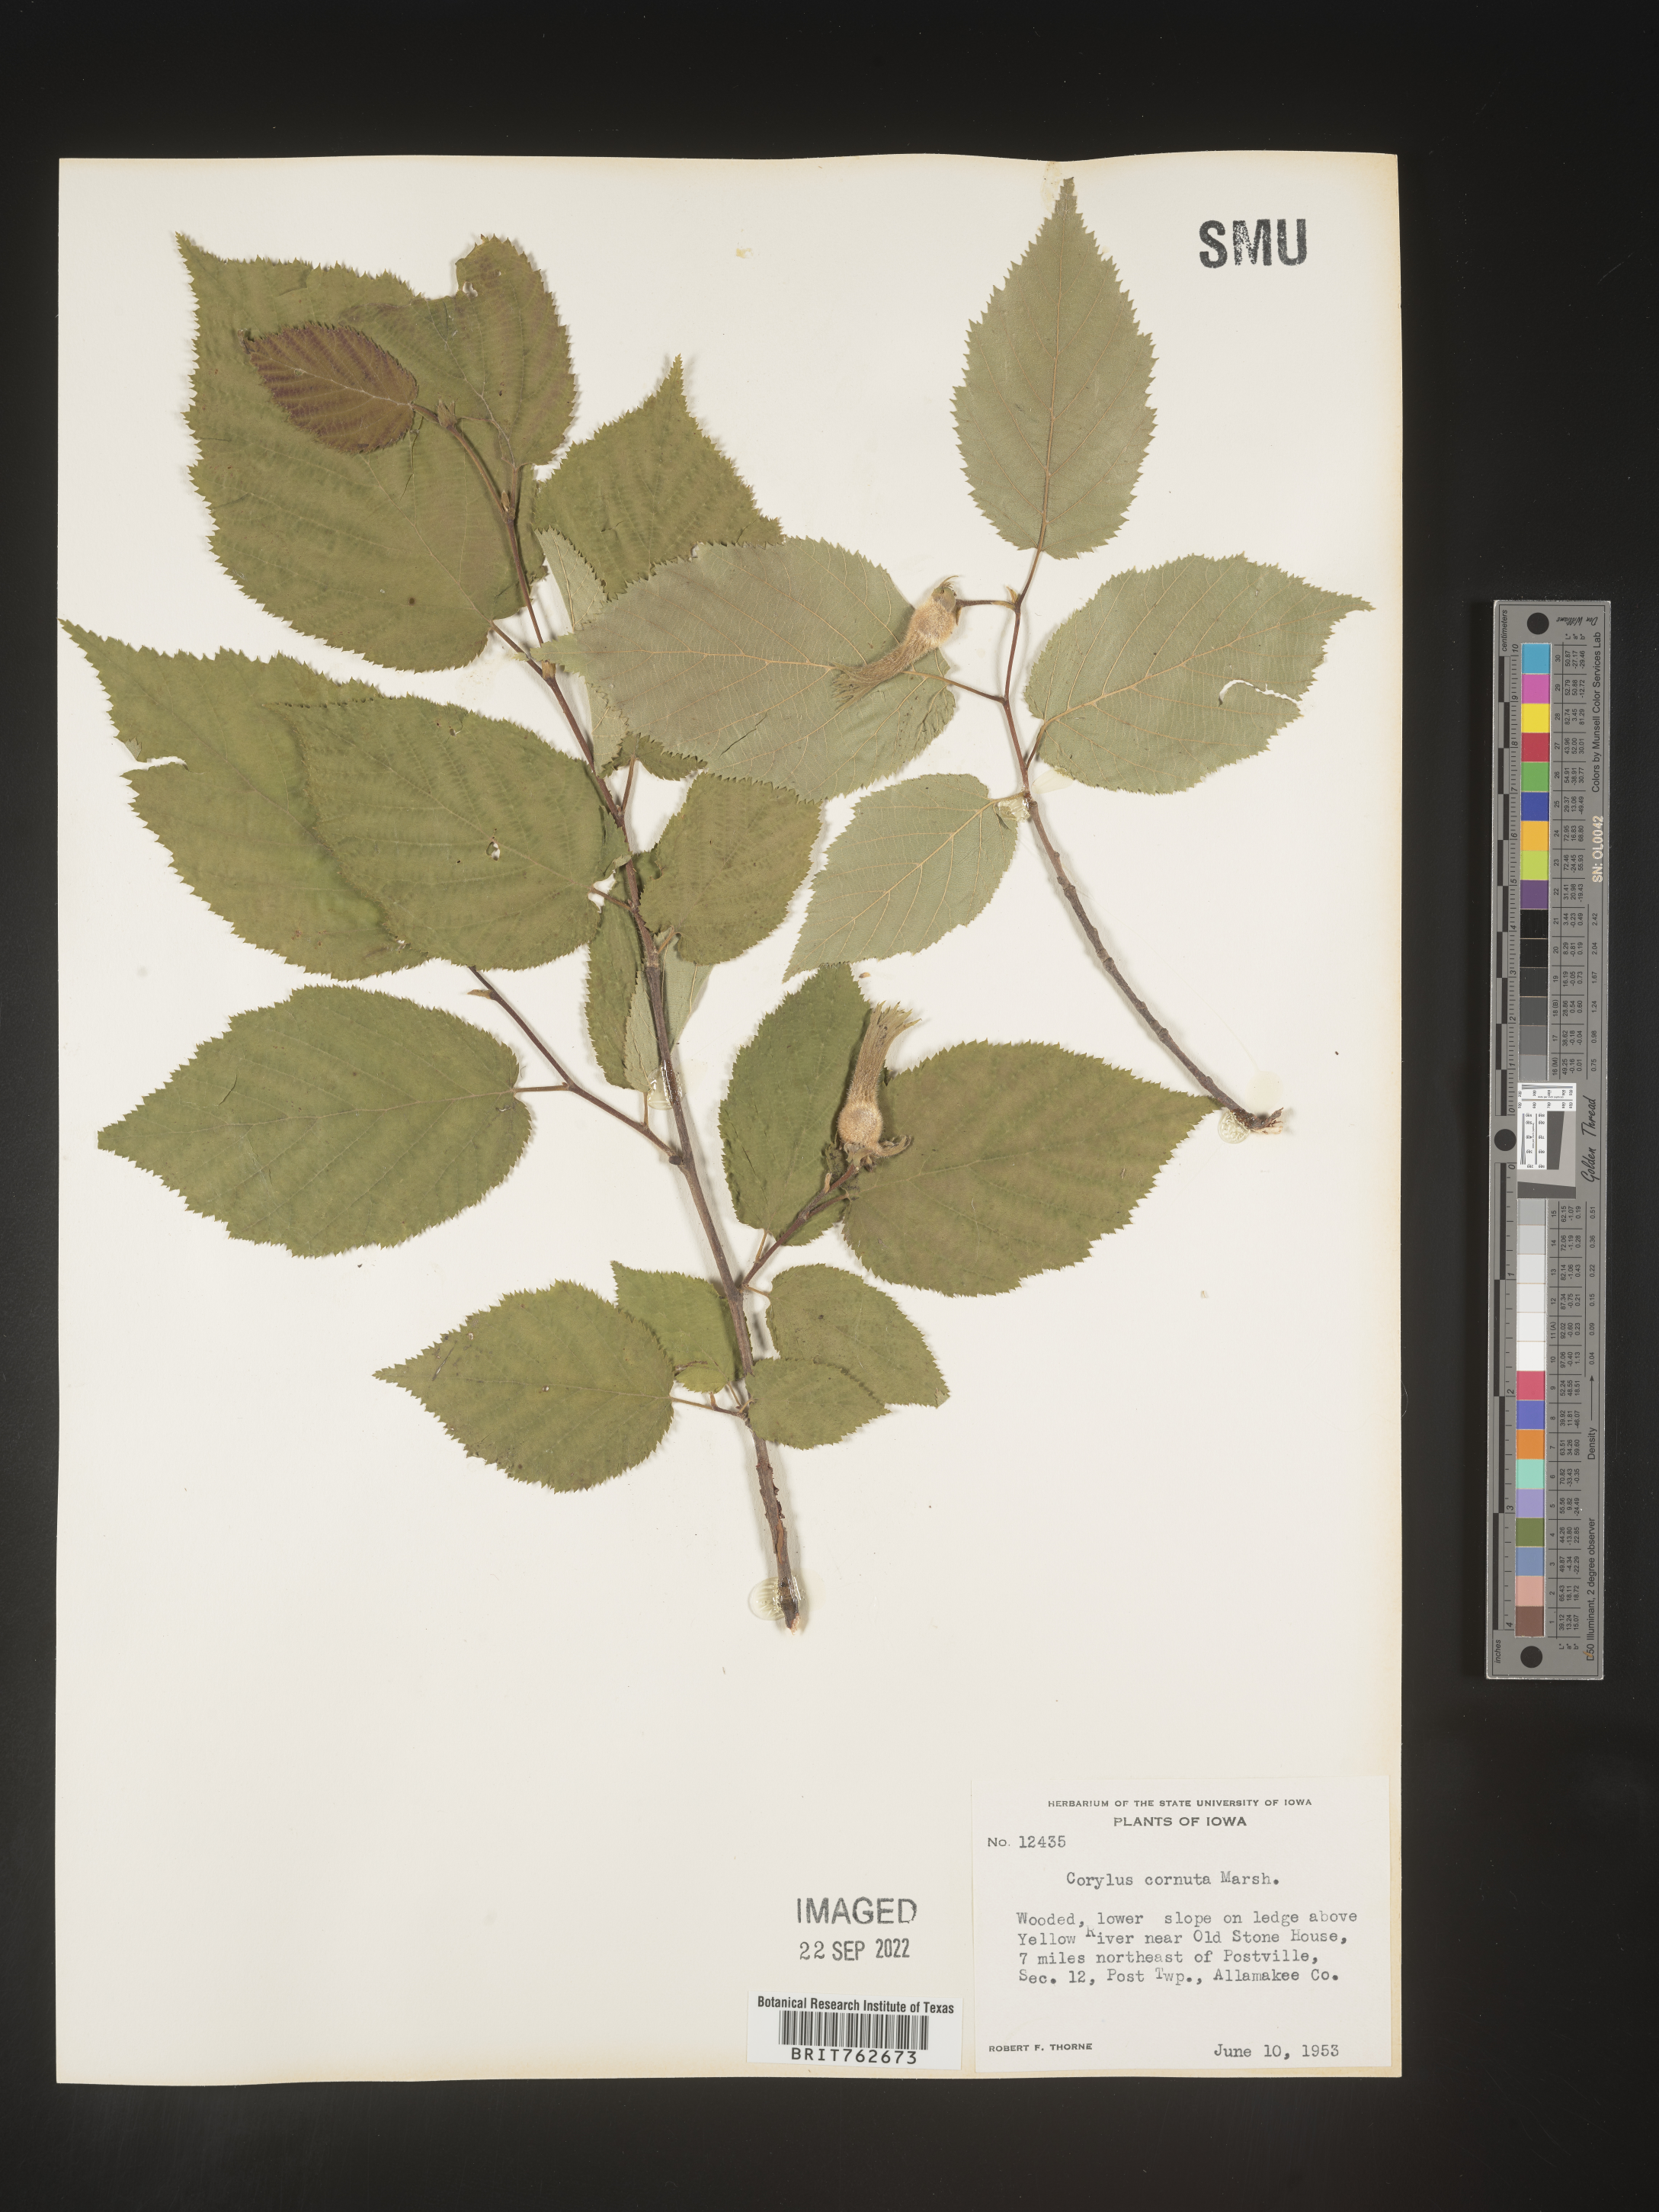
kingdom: Plantae
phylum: Tracheophyta
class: Magnoliopsida
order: Fagales
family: Betulaceae
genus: Corylus
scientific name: Corylus cornuta
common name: Beaked hazel
